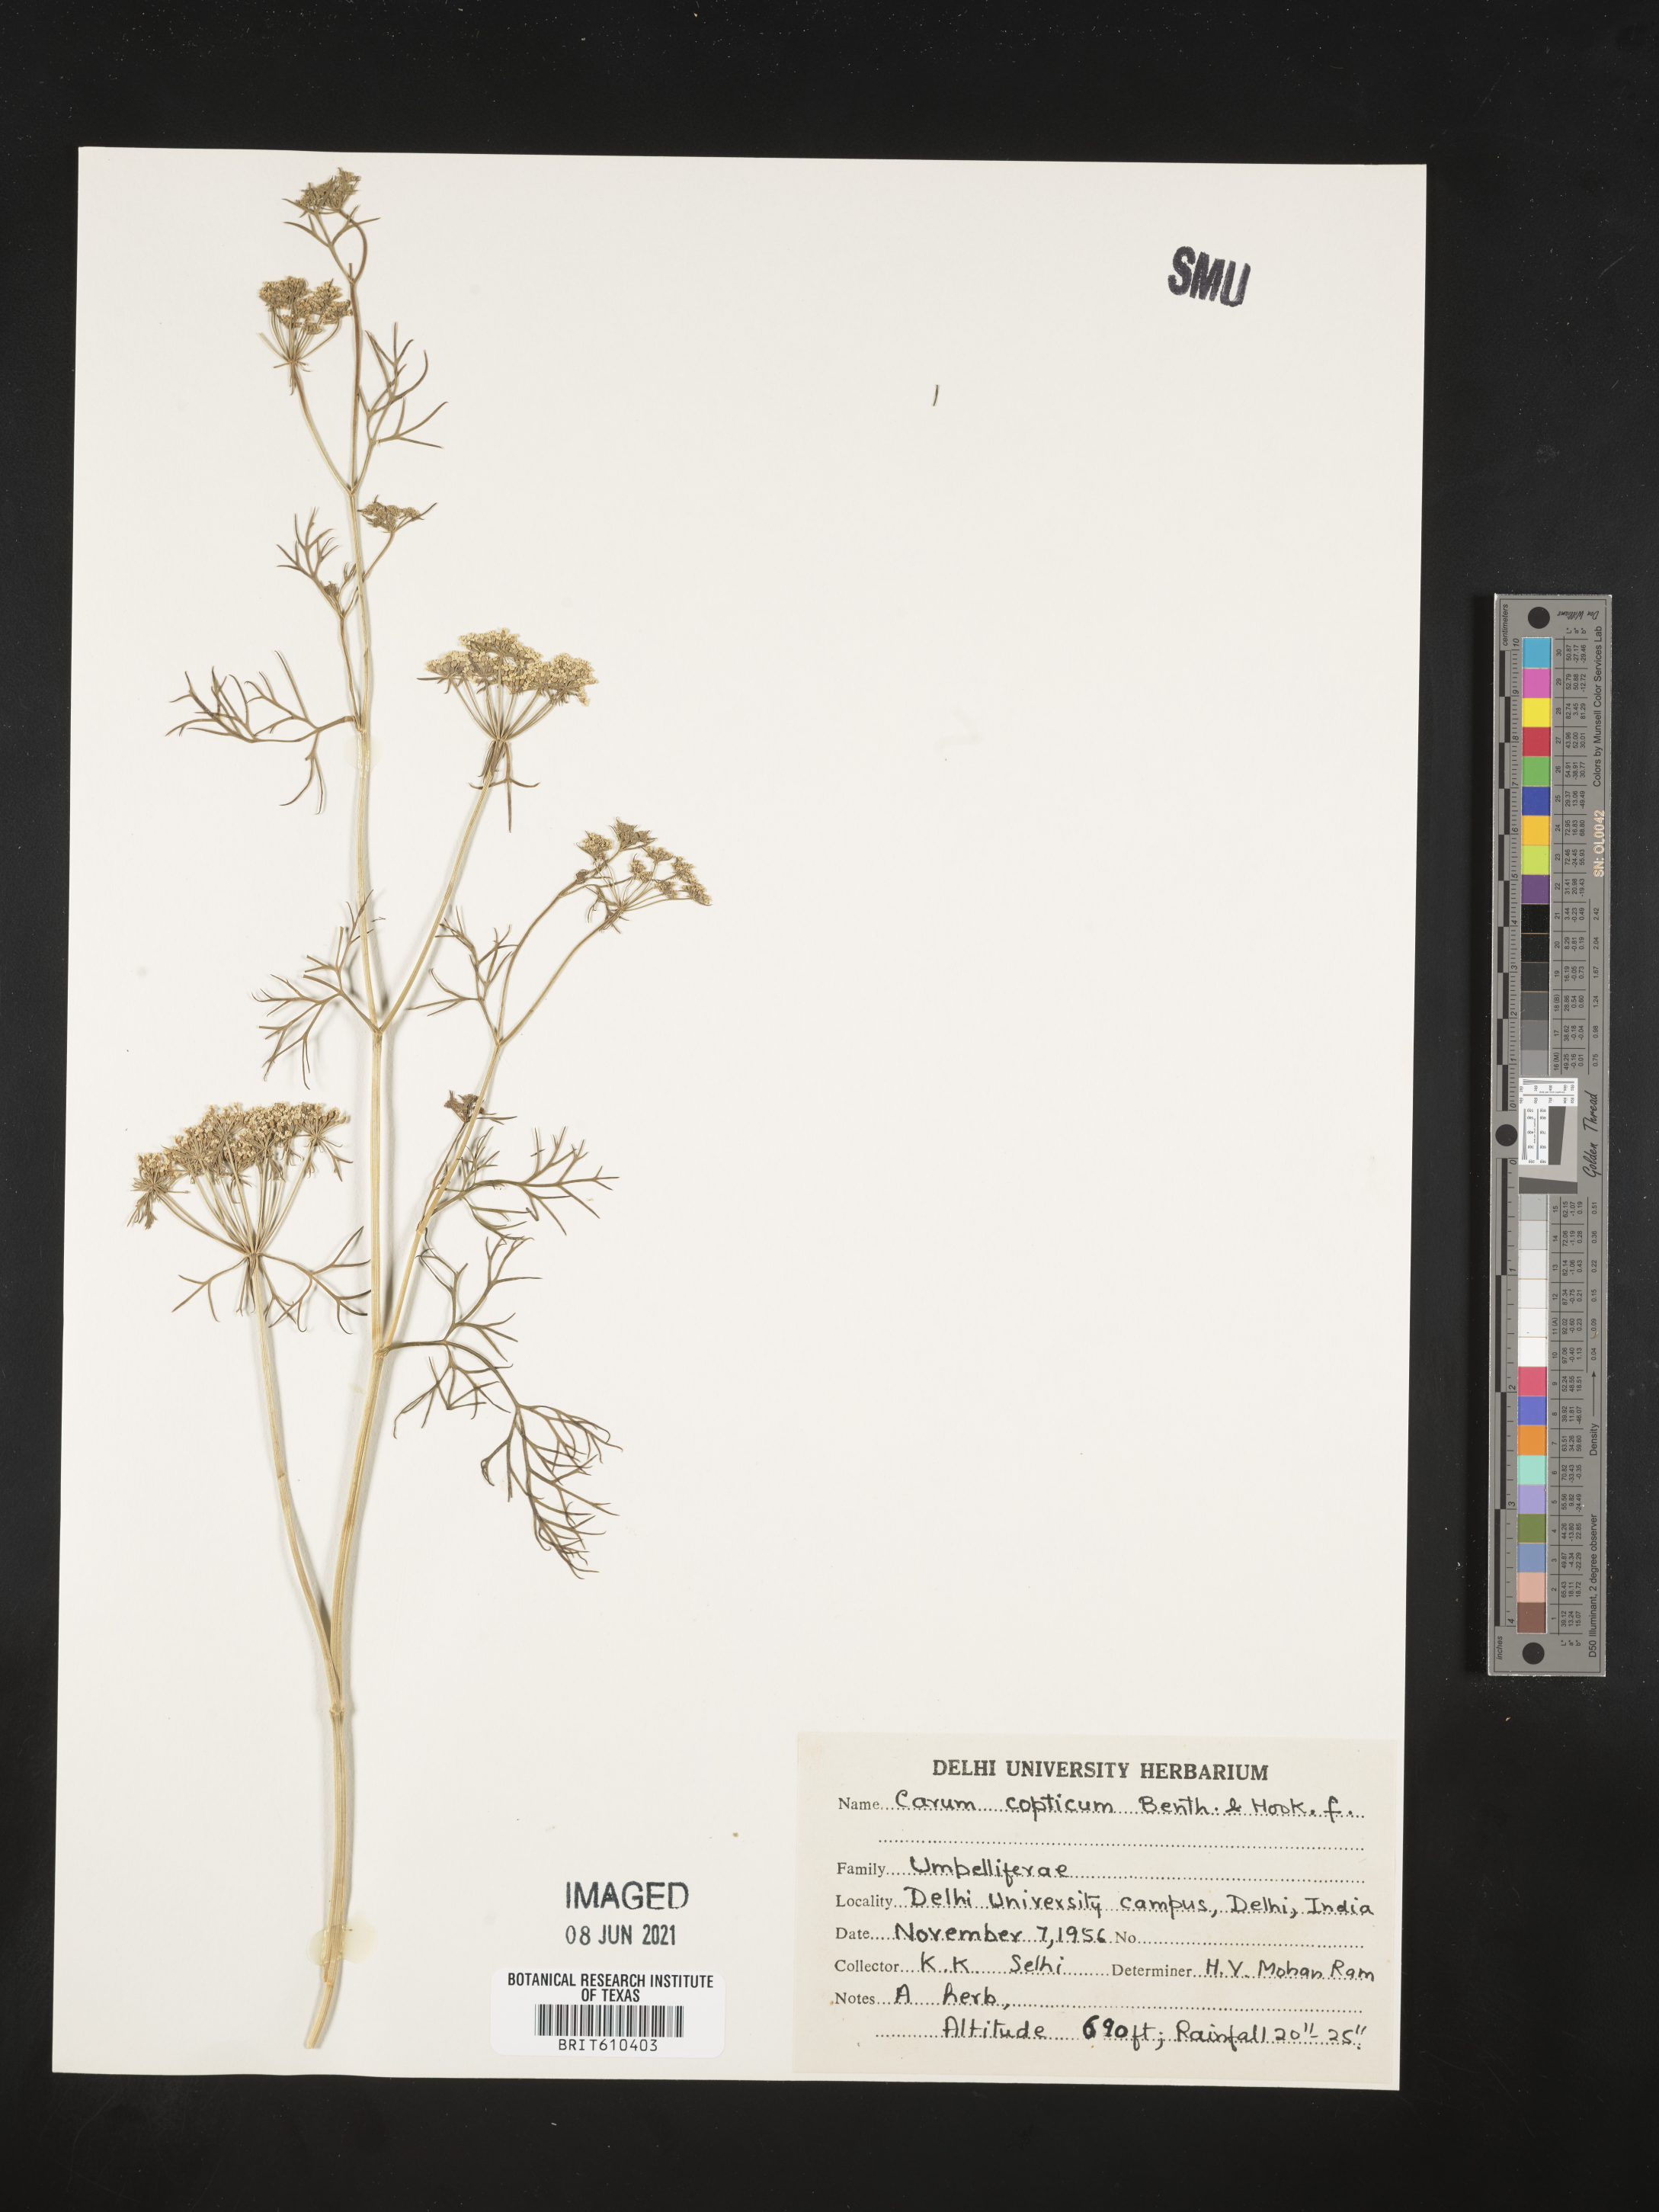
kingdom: Plantae
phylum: Tracheophyta
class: Magnoliopsida
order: Apiales
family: Apiaceae
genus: Trachyspermum
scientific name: Trachyspermum ammi
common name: Ajowan
